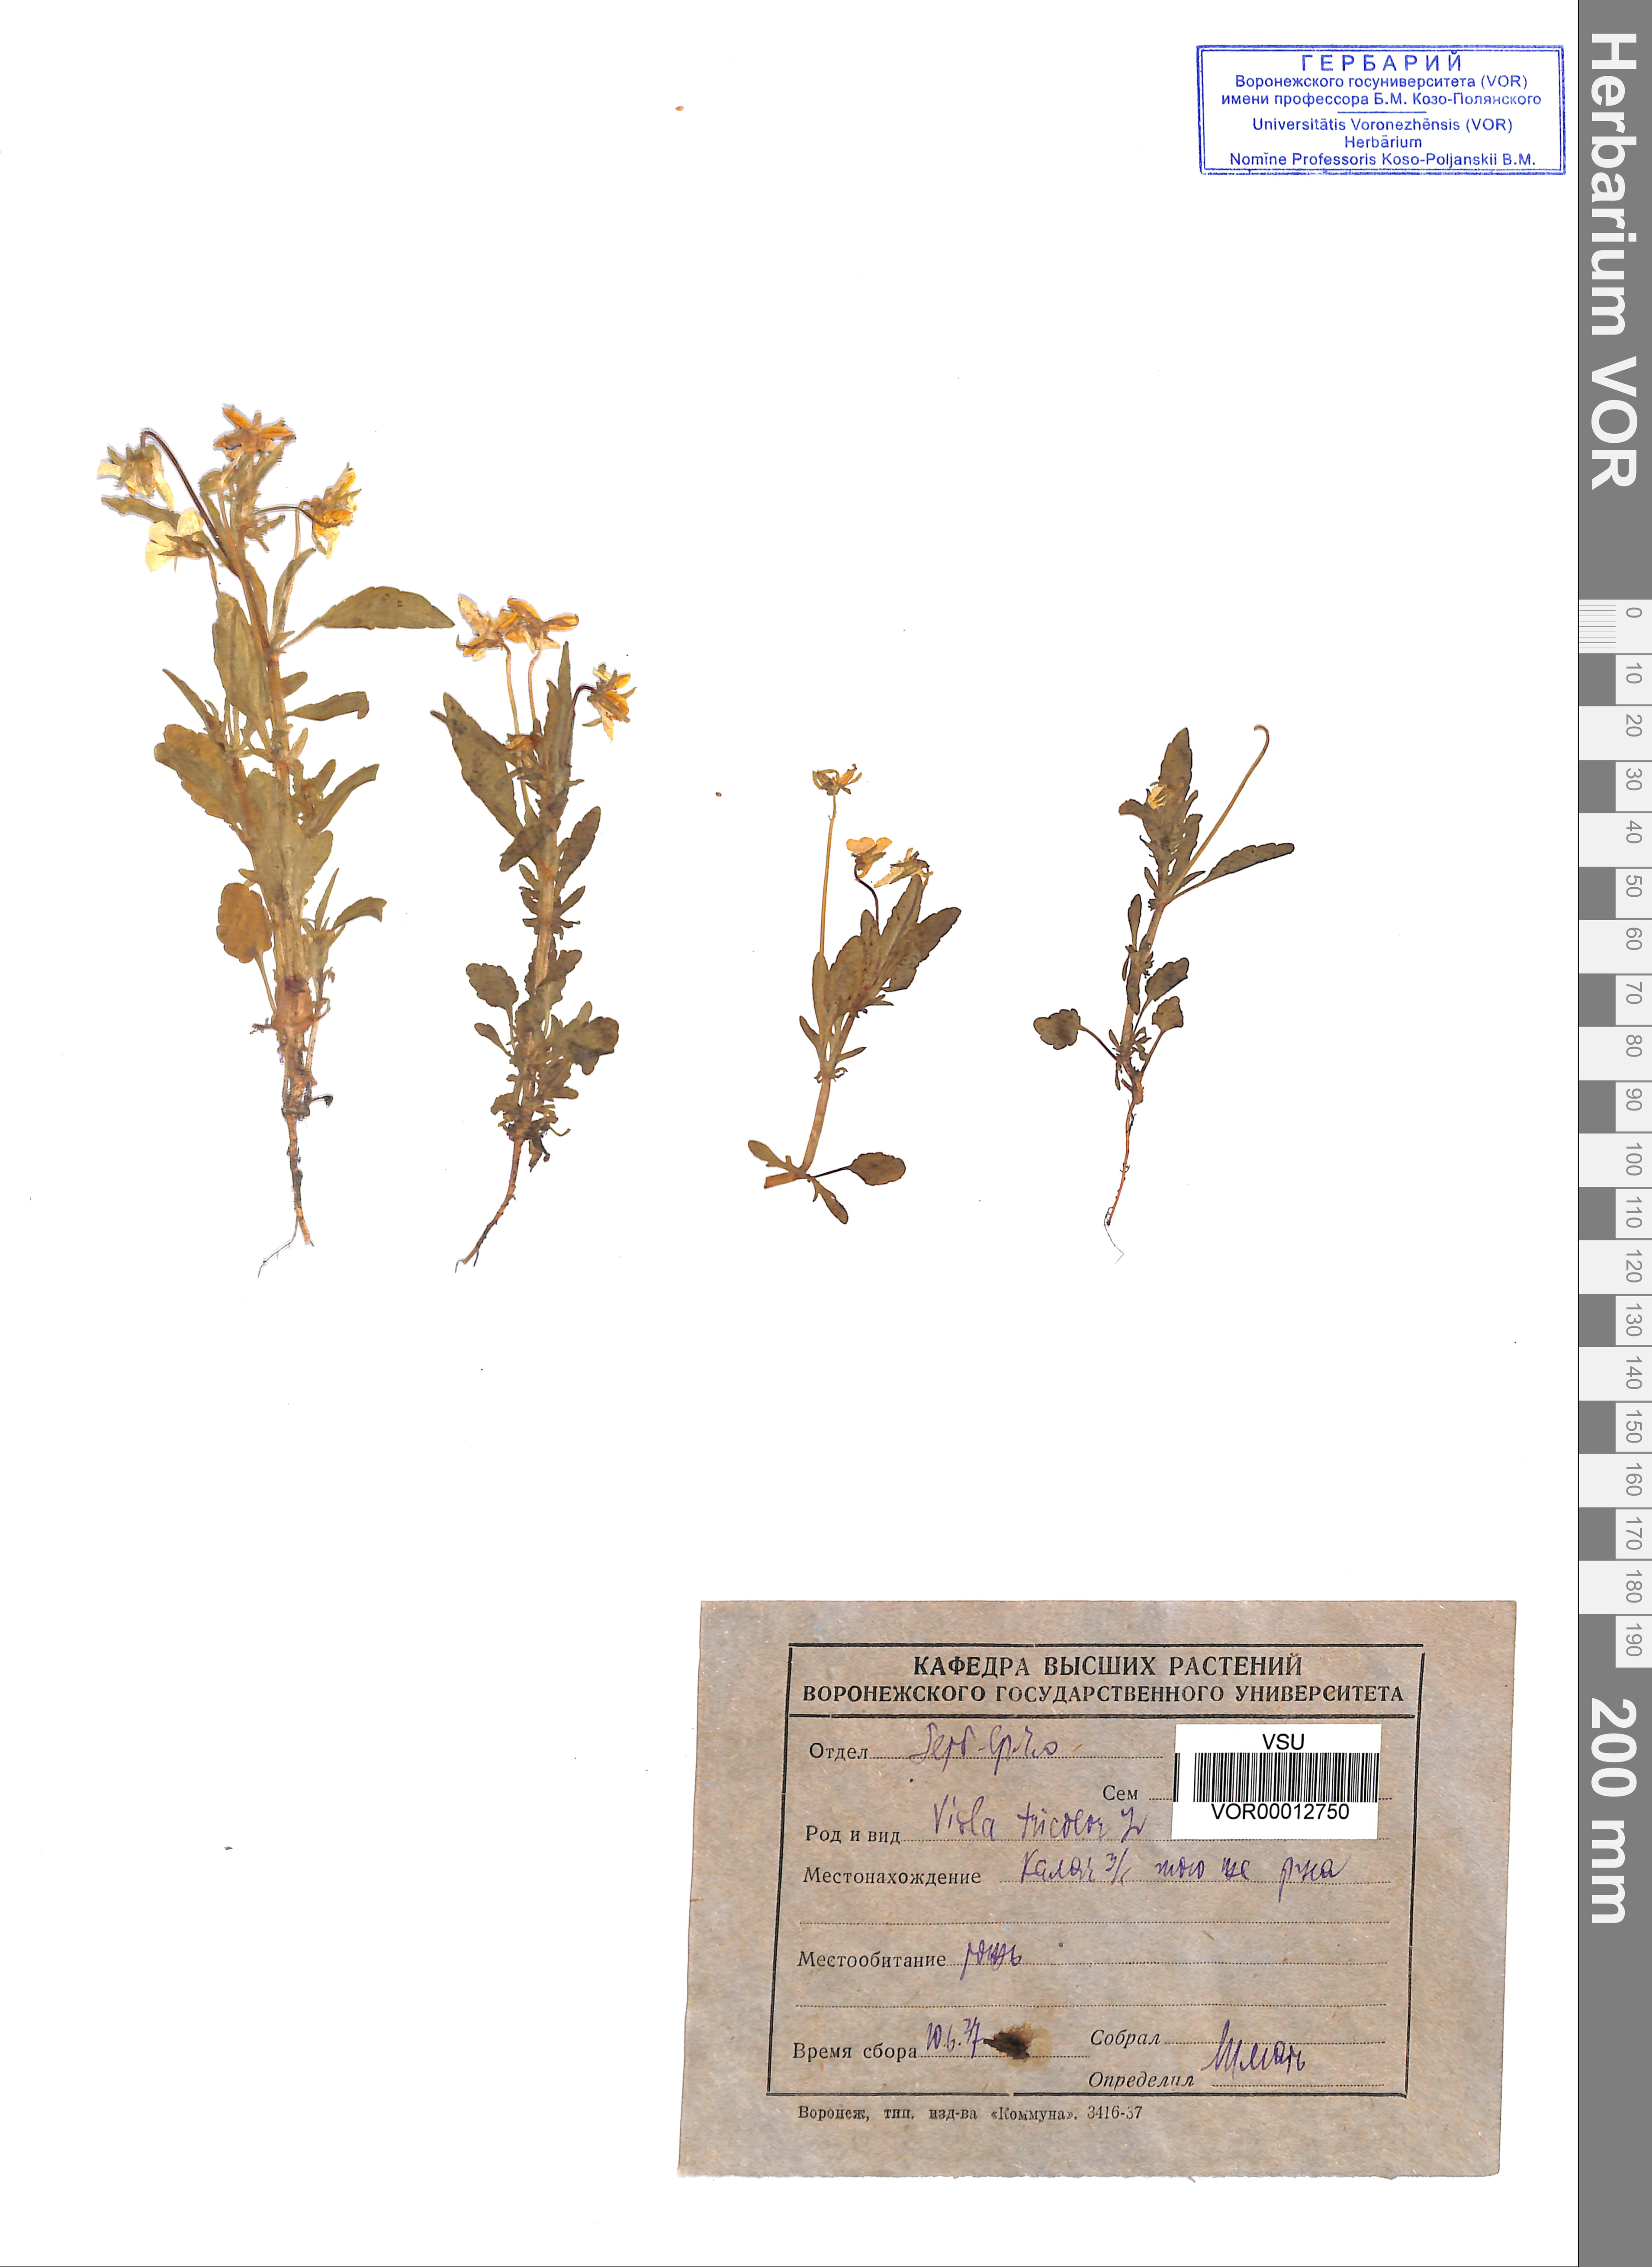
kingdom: Plantae
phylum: Tracheophyta
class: Magnoliopsida
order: Malpighiales
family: Violaceae
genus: Viola
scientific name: Viola tricolor
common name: Pansy
